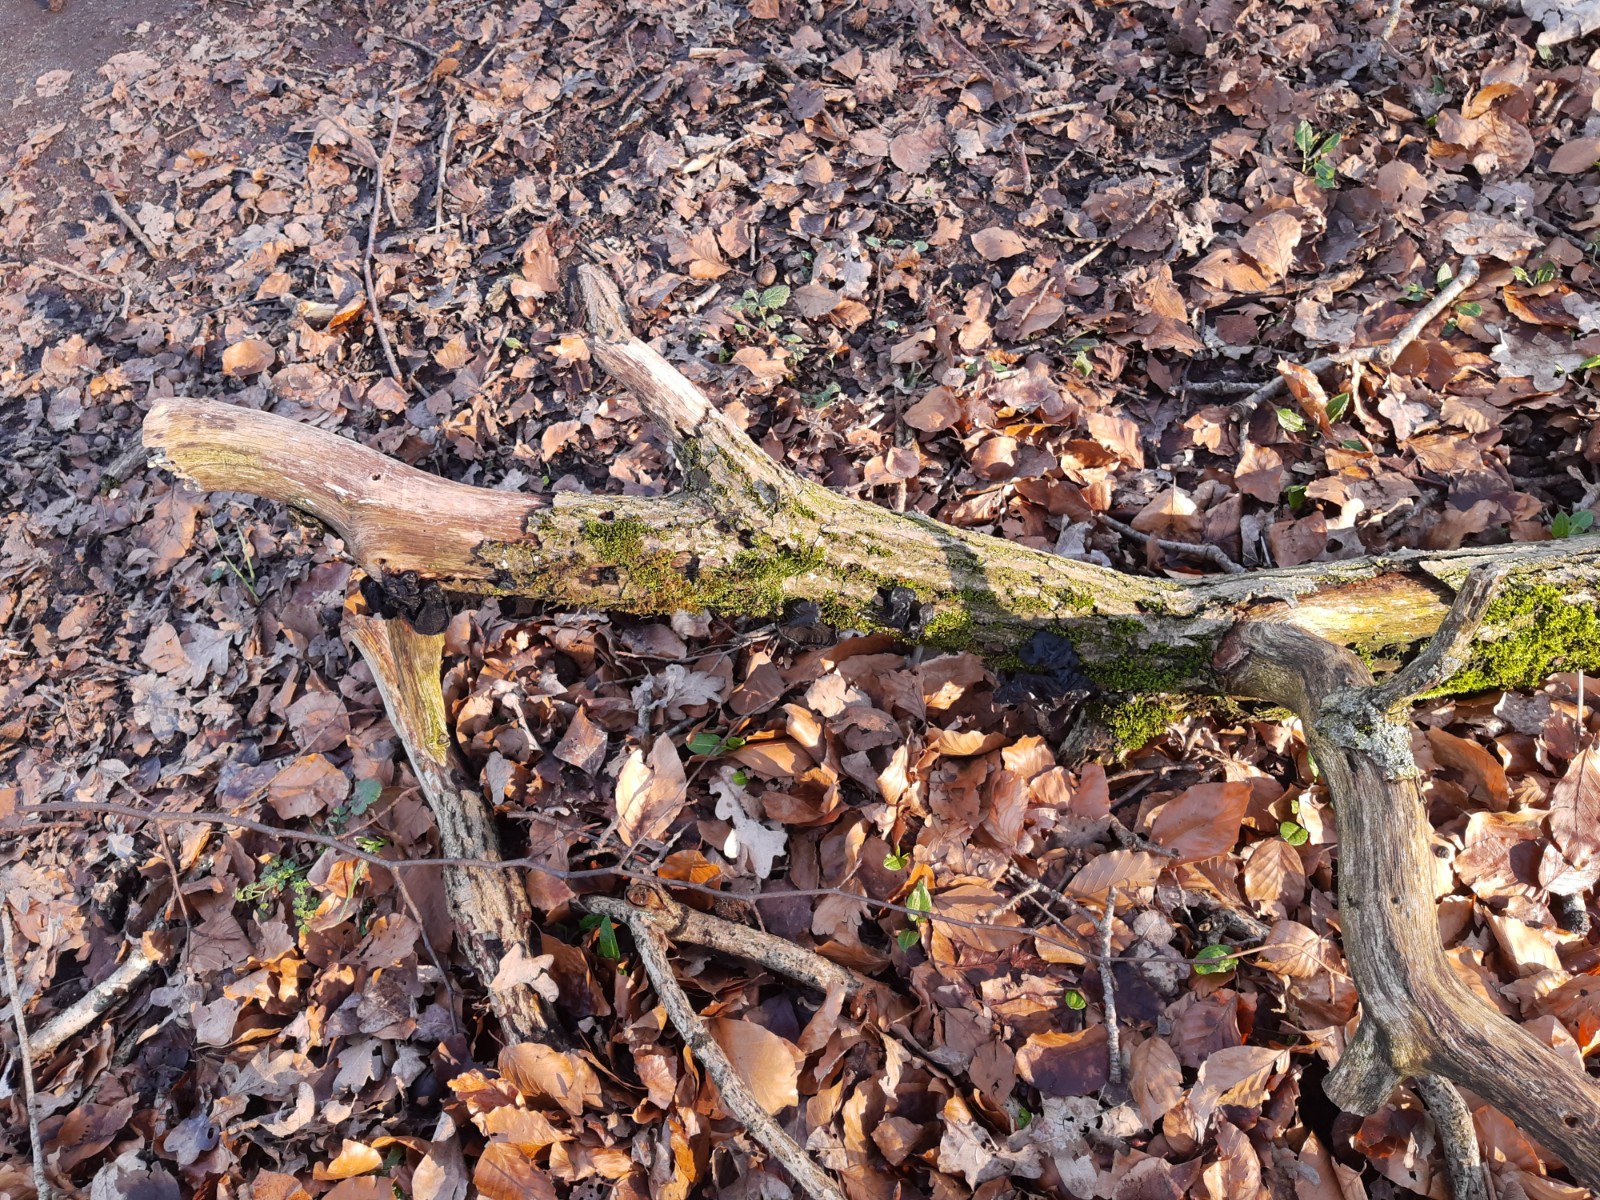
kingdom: Fungi
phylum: Basidiomycota
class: Agaricomycetes
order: Auriculariales
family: Auriculariaceae
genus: Exidia
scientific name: Exidia glandulosa
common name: ege-bævretop
